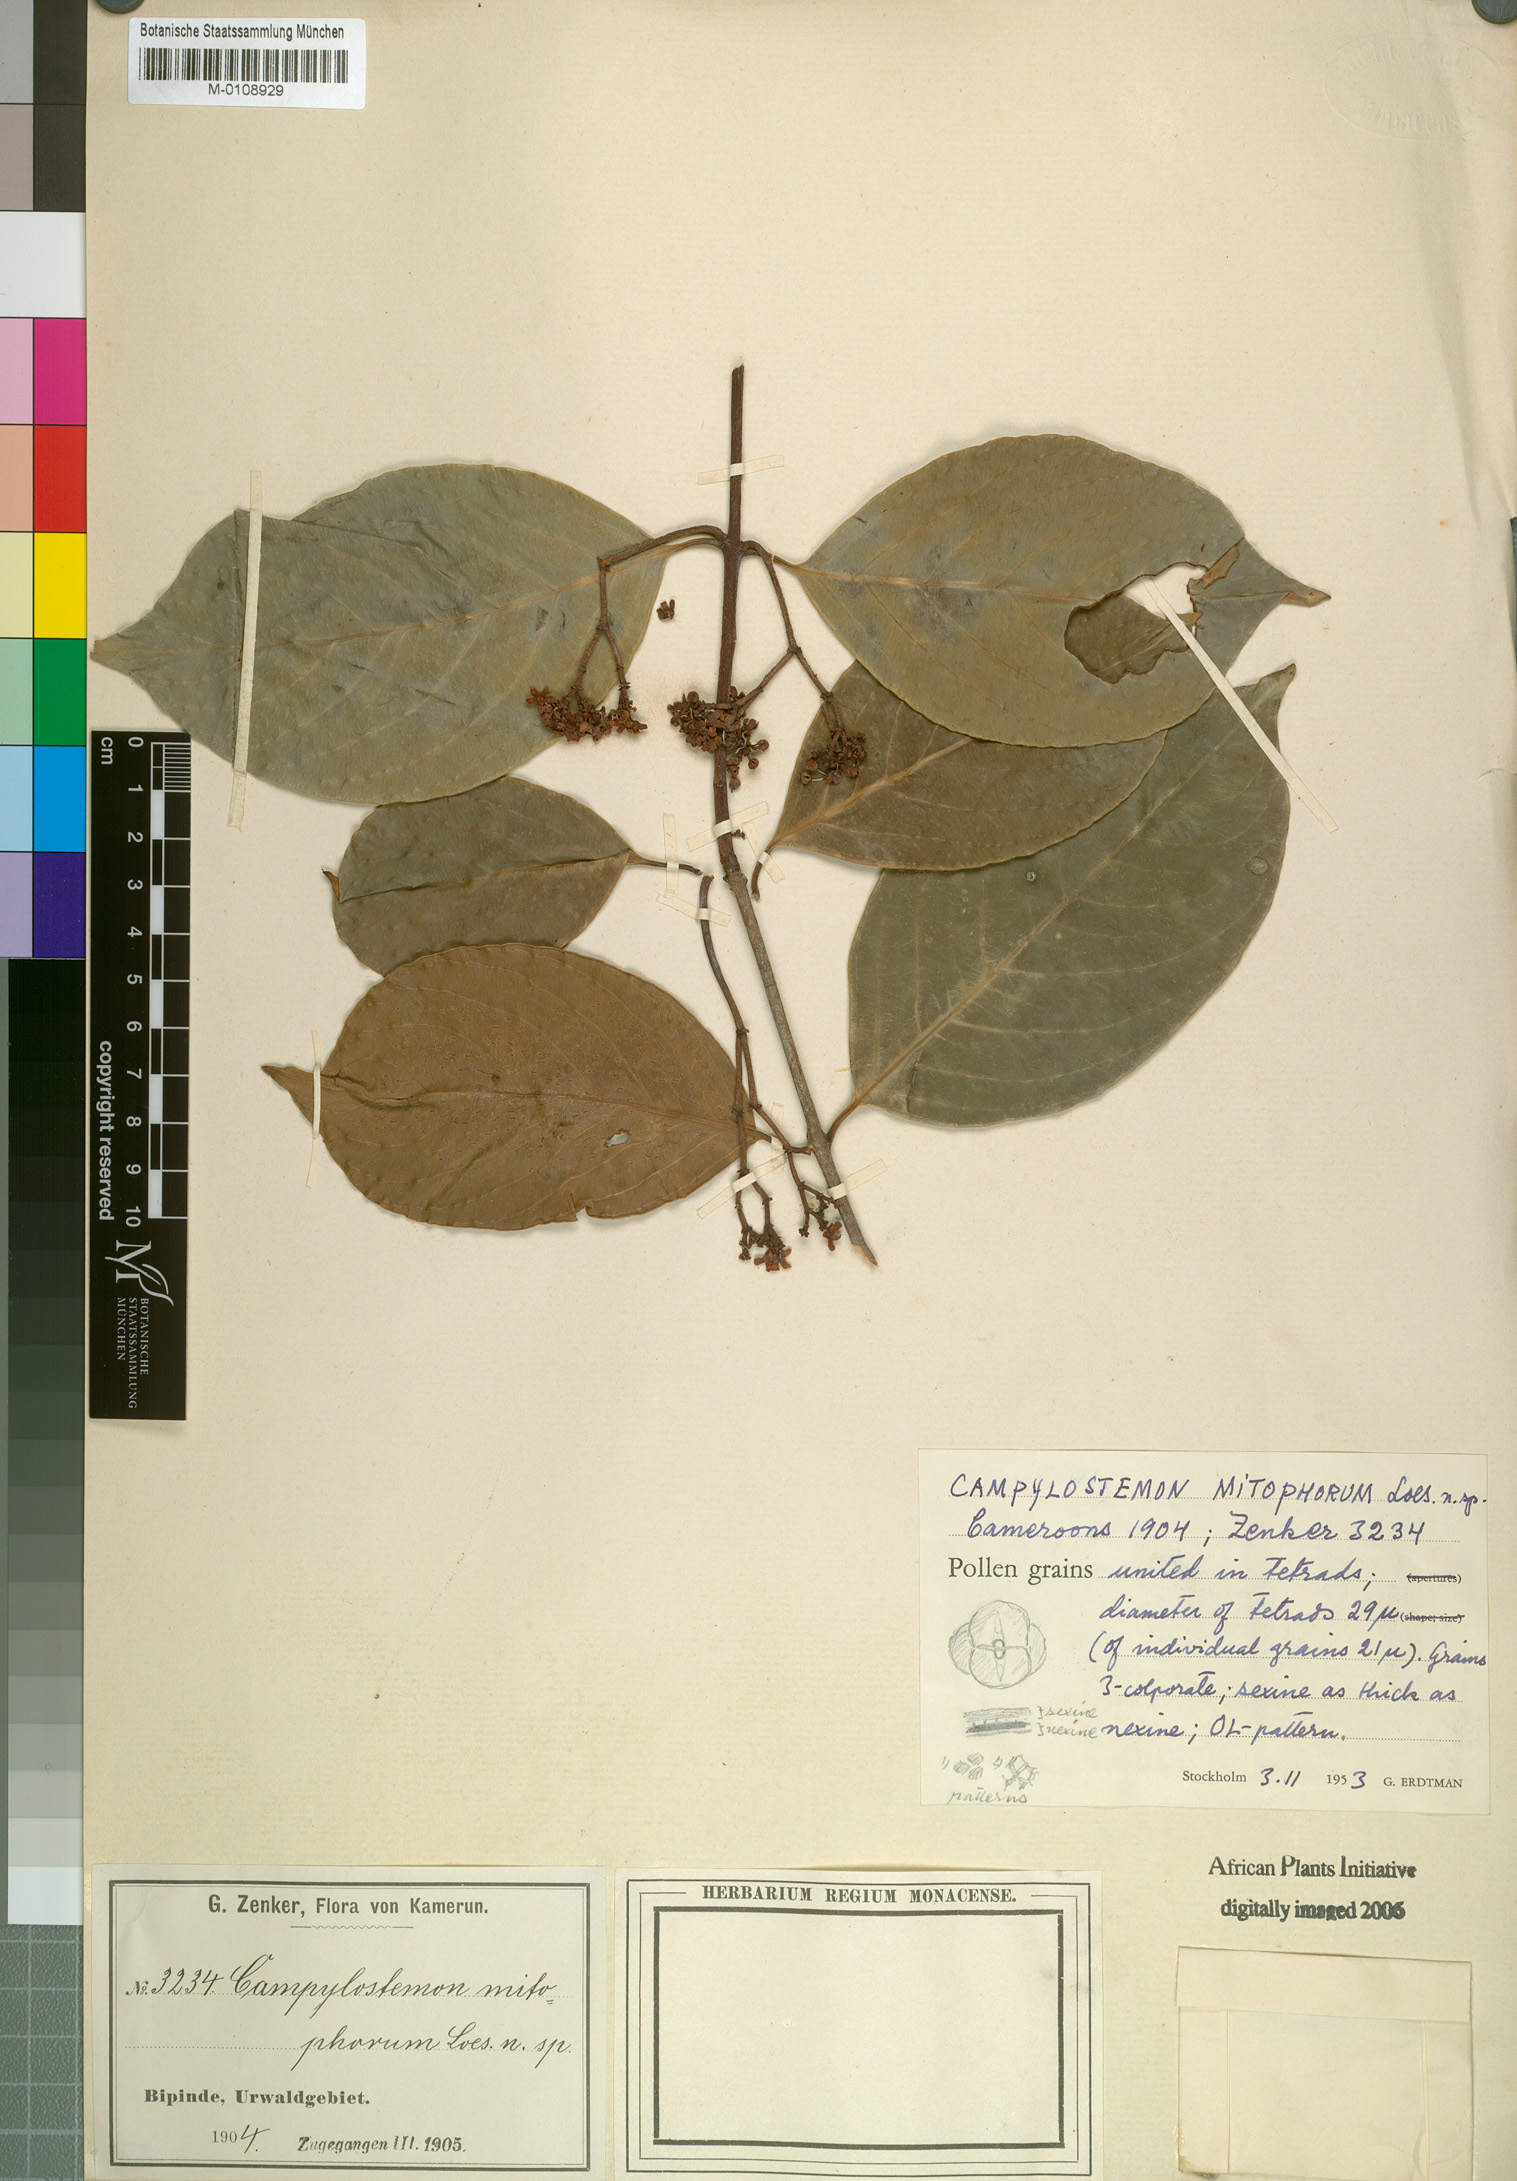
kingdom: Plantae
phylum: Tracheophyta
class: Magnoliopsida
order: Celastrales
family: Celastraceae
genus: Campylostemon
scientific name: Campylostemon mitophorum
